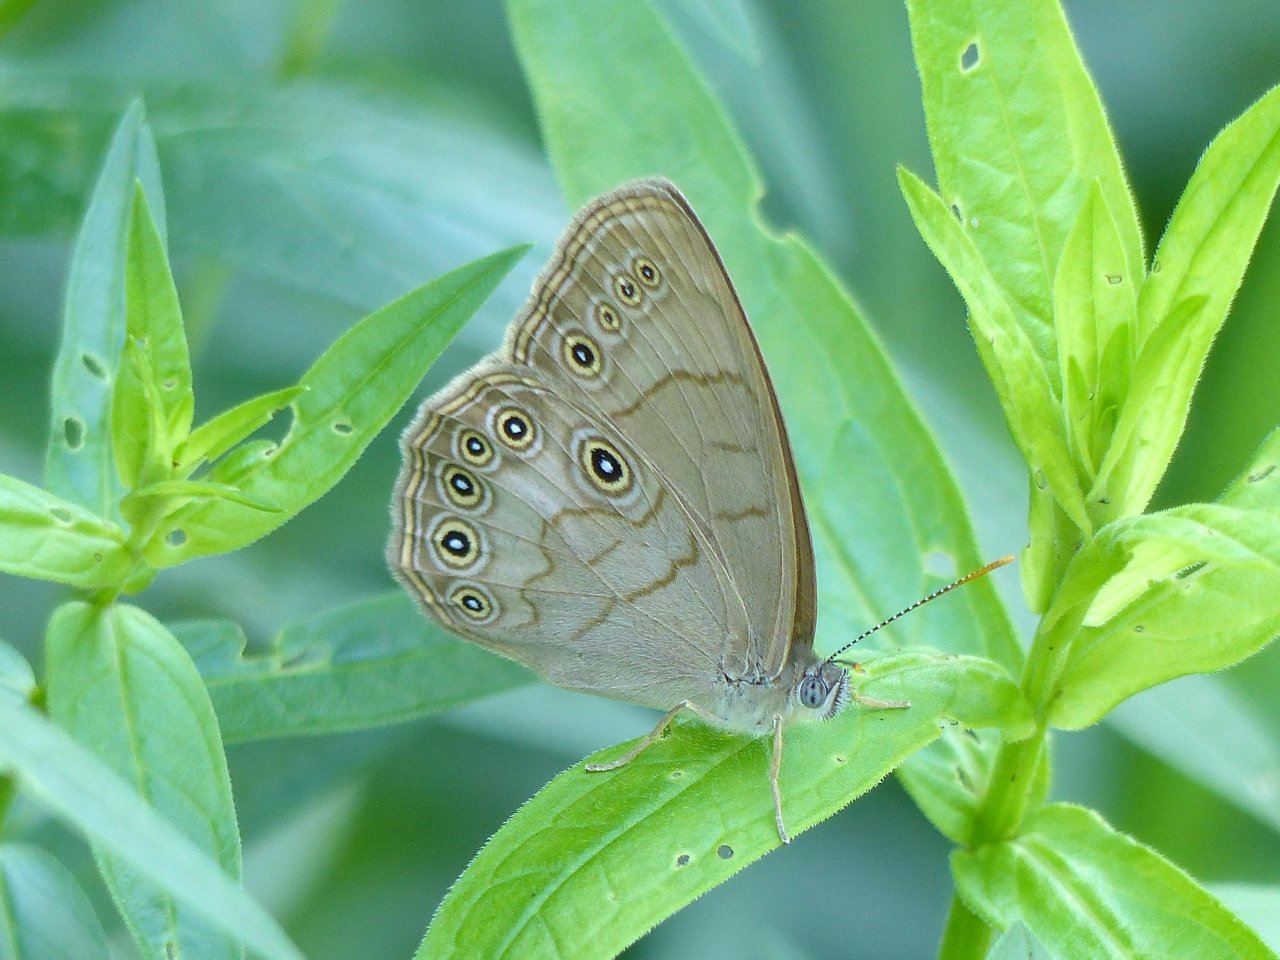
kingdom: Animalia
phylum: Arthropoda
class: Insecta
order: Lepidoptera
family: Nymphalidae
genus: Lethe
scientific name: Lethe eurydice
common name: Eyed Brown
